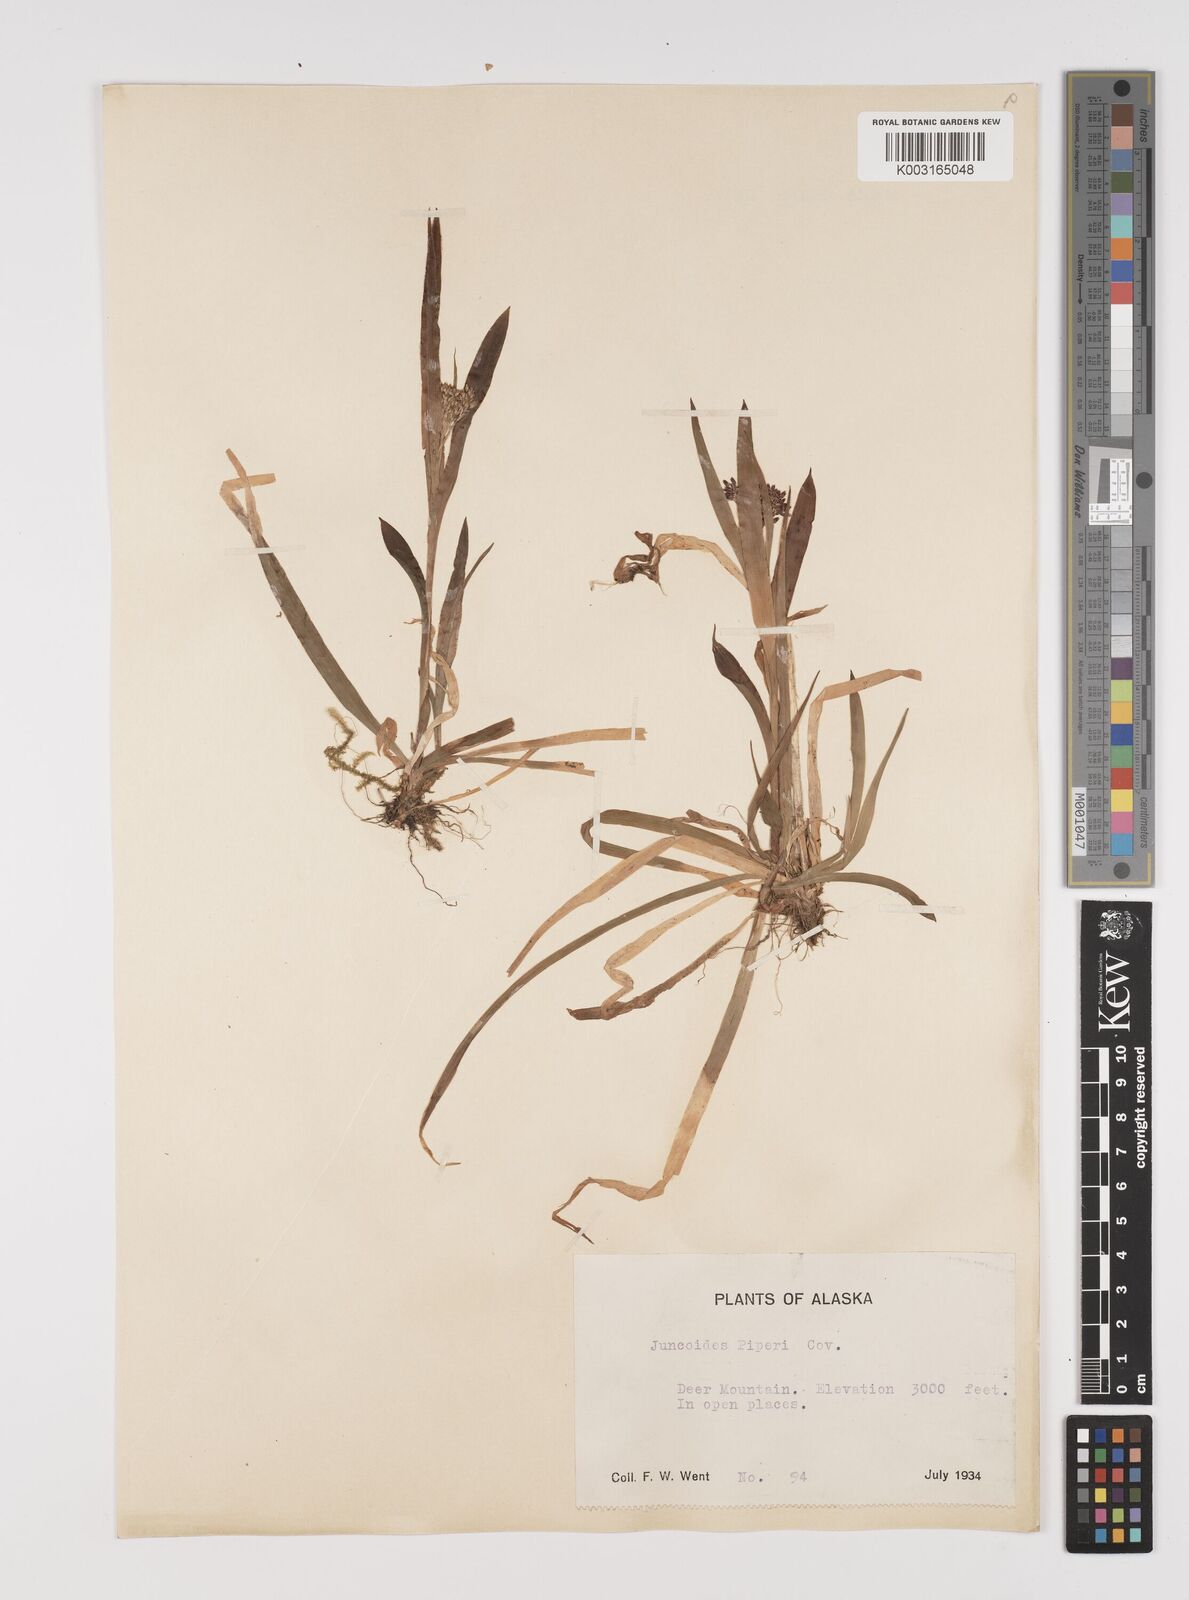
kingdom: Plantae
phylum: Tracheophyta
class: Liliopsida
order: Poales
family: Juncaceae
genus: Luzula
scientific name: Luzula piperi
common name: Piper's wood-rush
